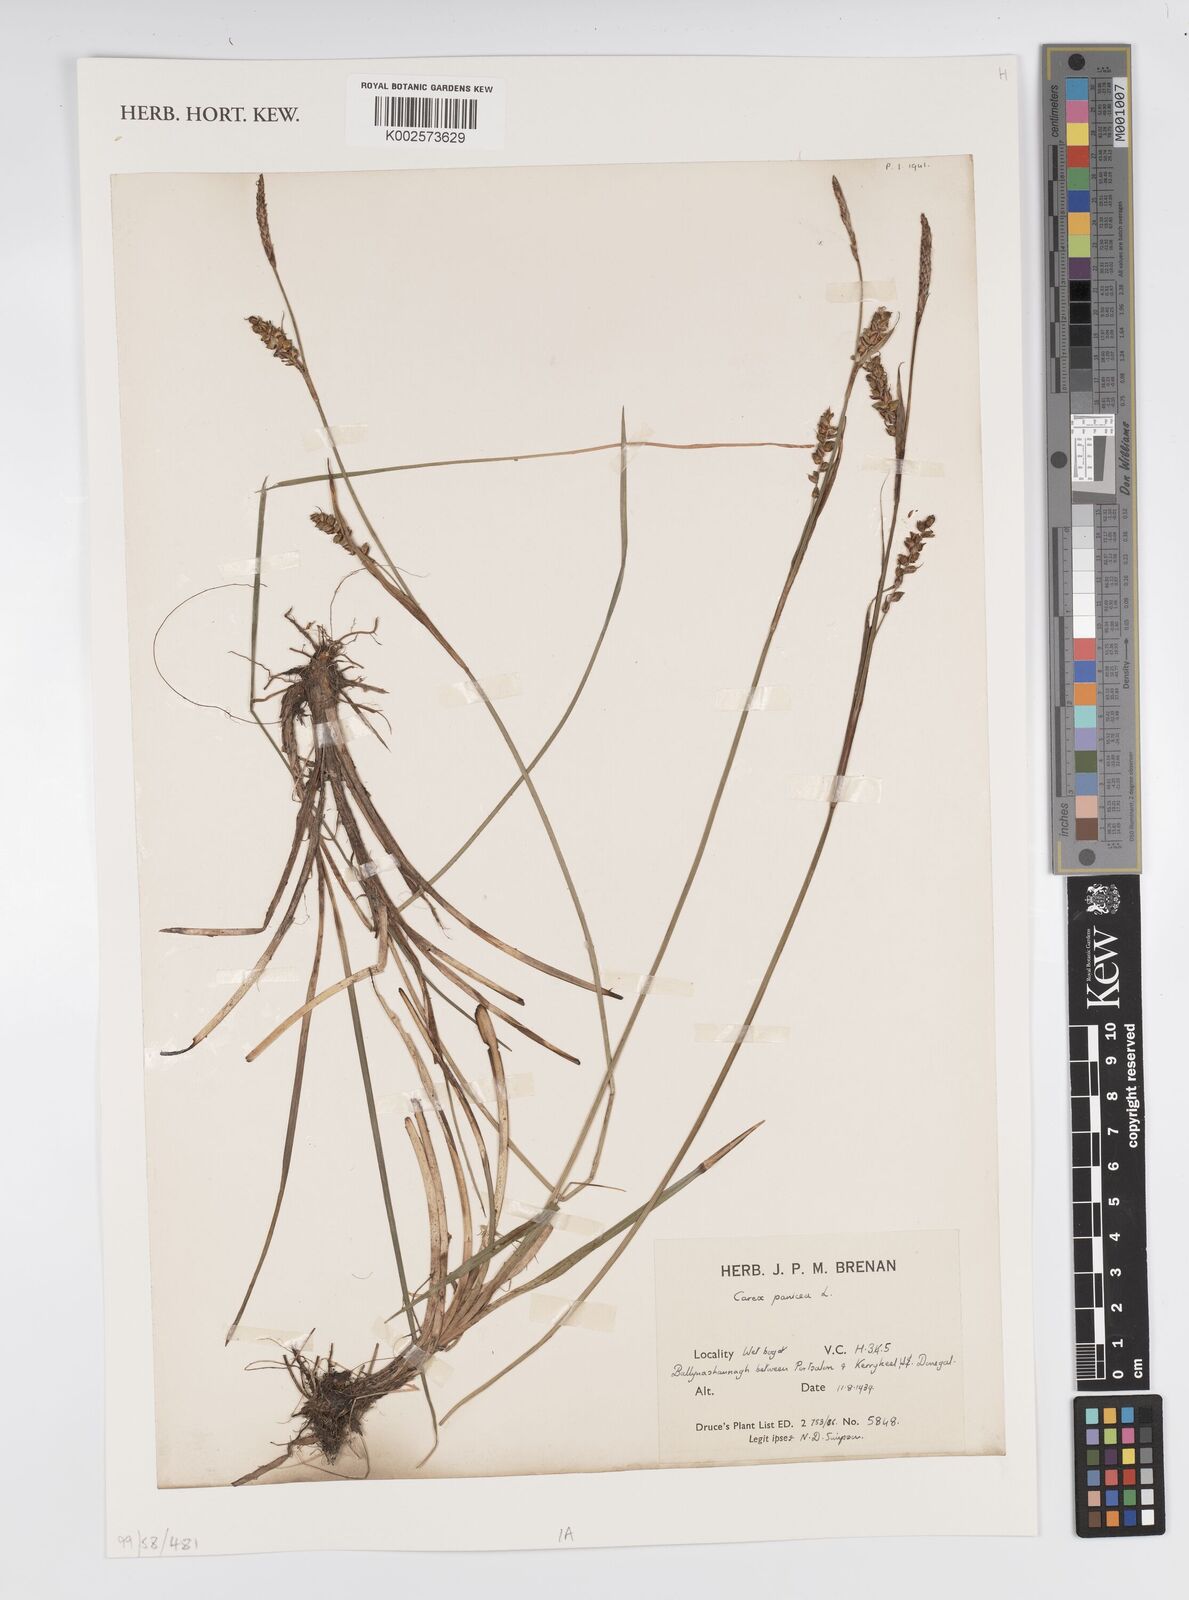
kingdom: Plantae
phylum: Tracheophyta
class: Liliopsida
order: Poales
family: Cyperaceae
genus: Carex
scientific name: Carex panicea
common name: Carnation sedge
